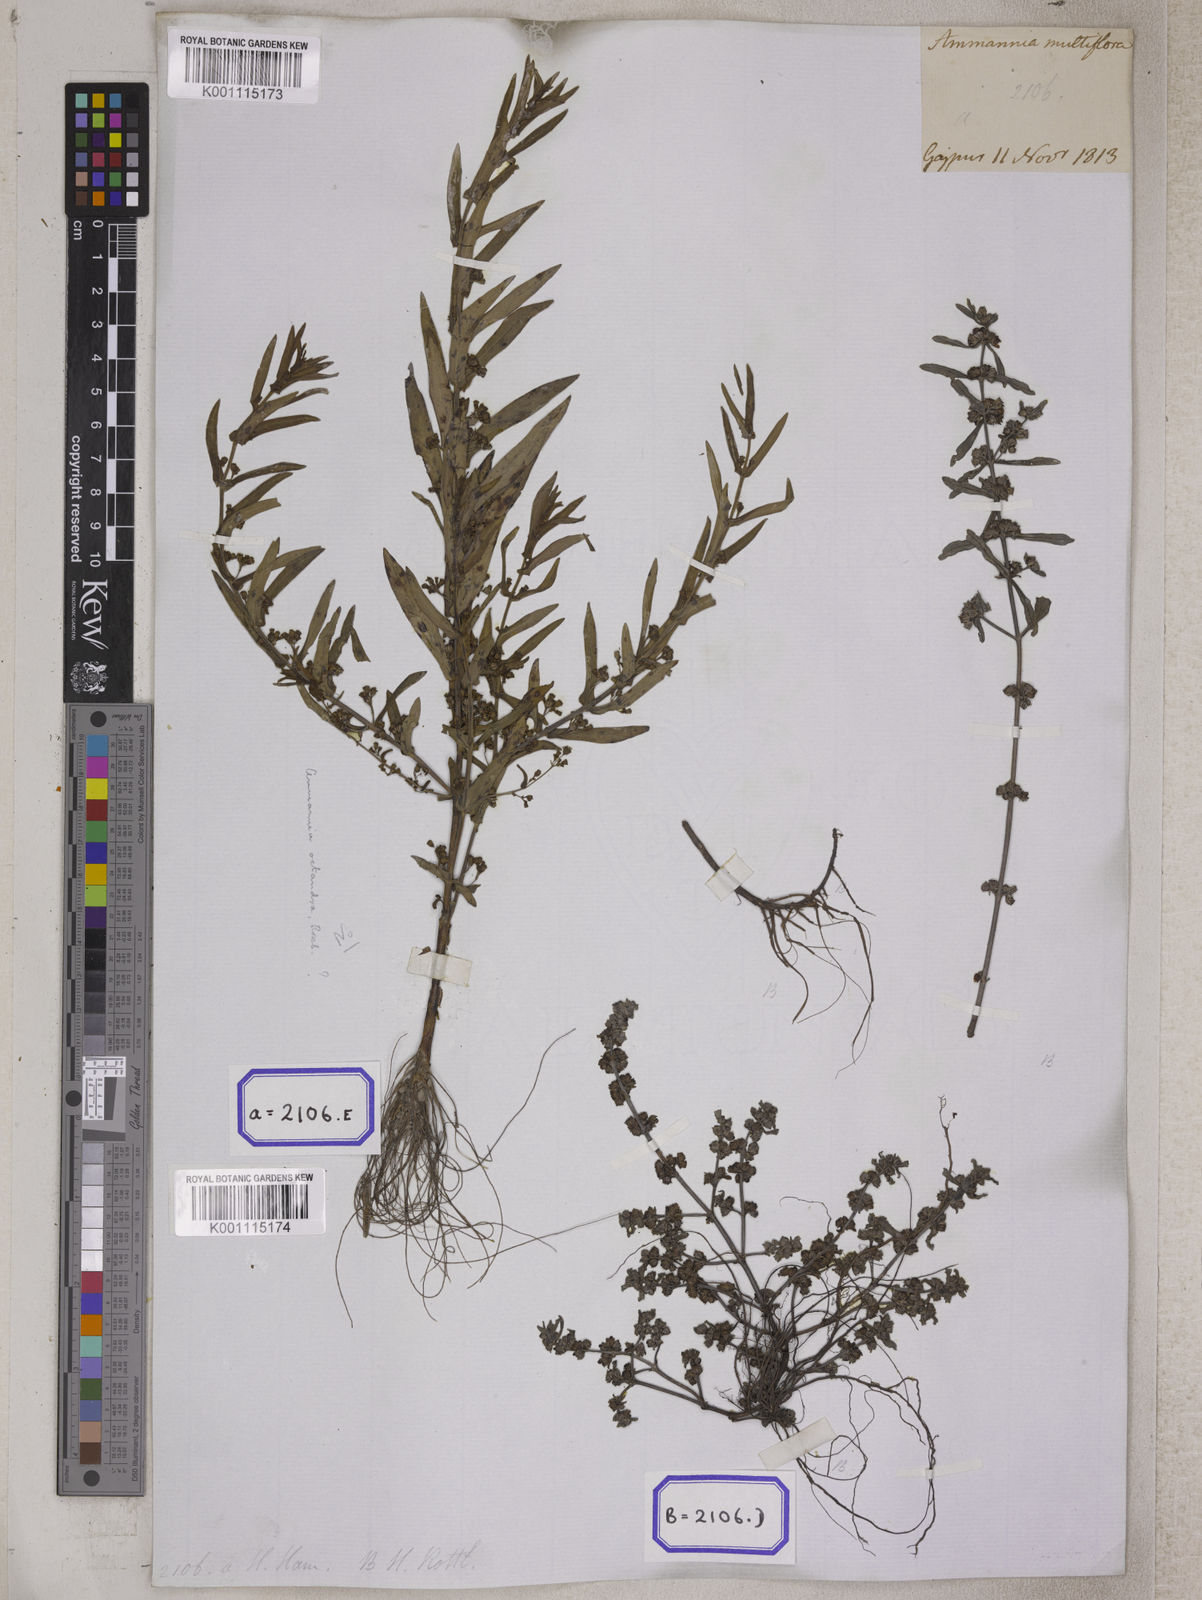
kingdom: Plantae
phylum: Tracheophyta
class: Magnoliopsida
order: Myrtales
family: Lythraceae
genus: Ammannia
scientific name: Ammannia
